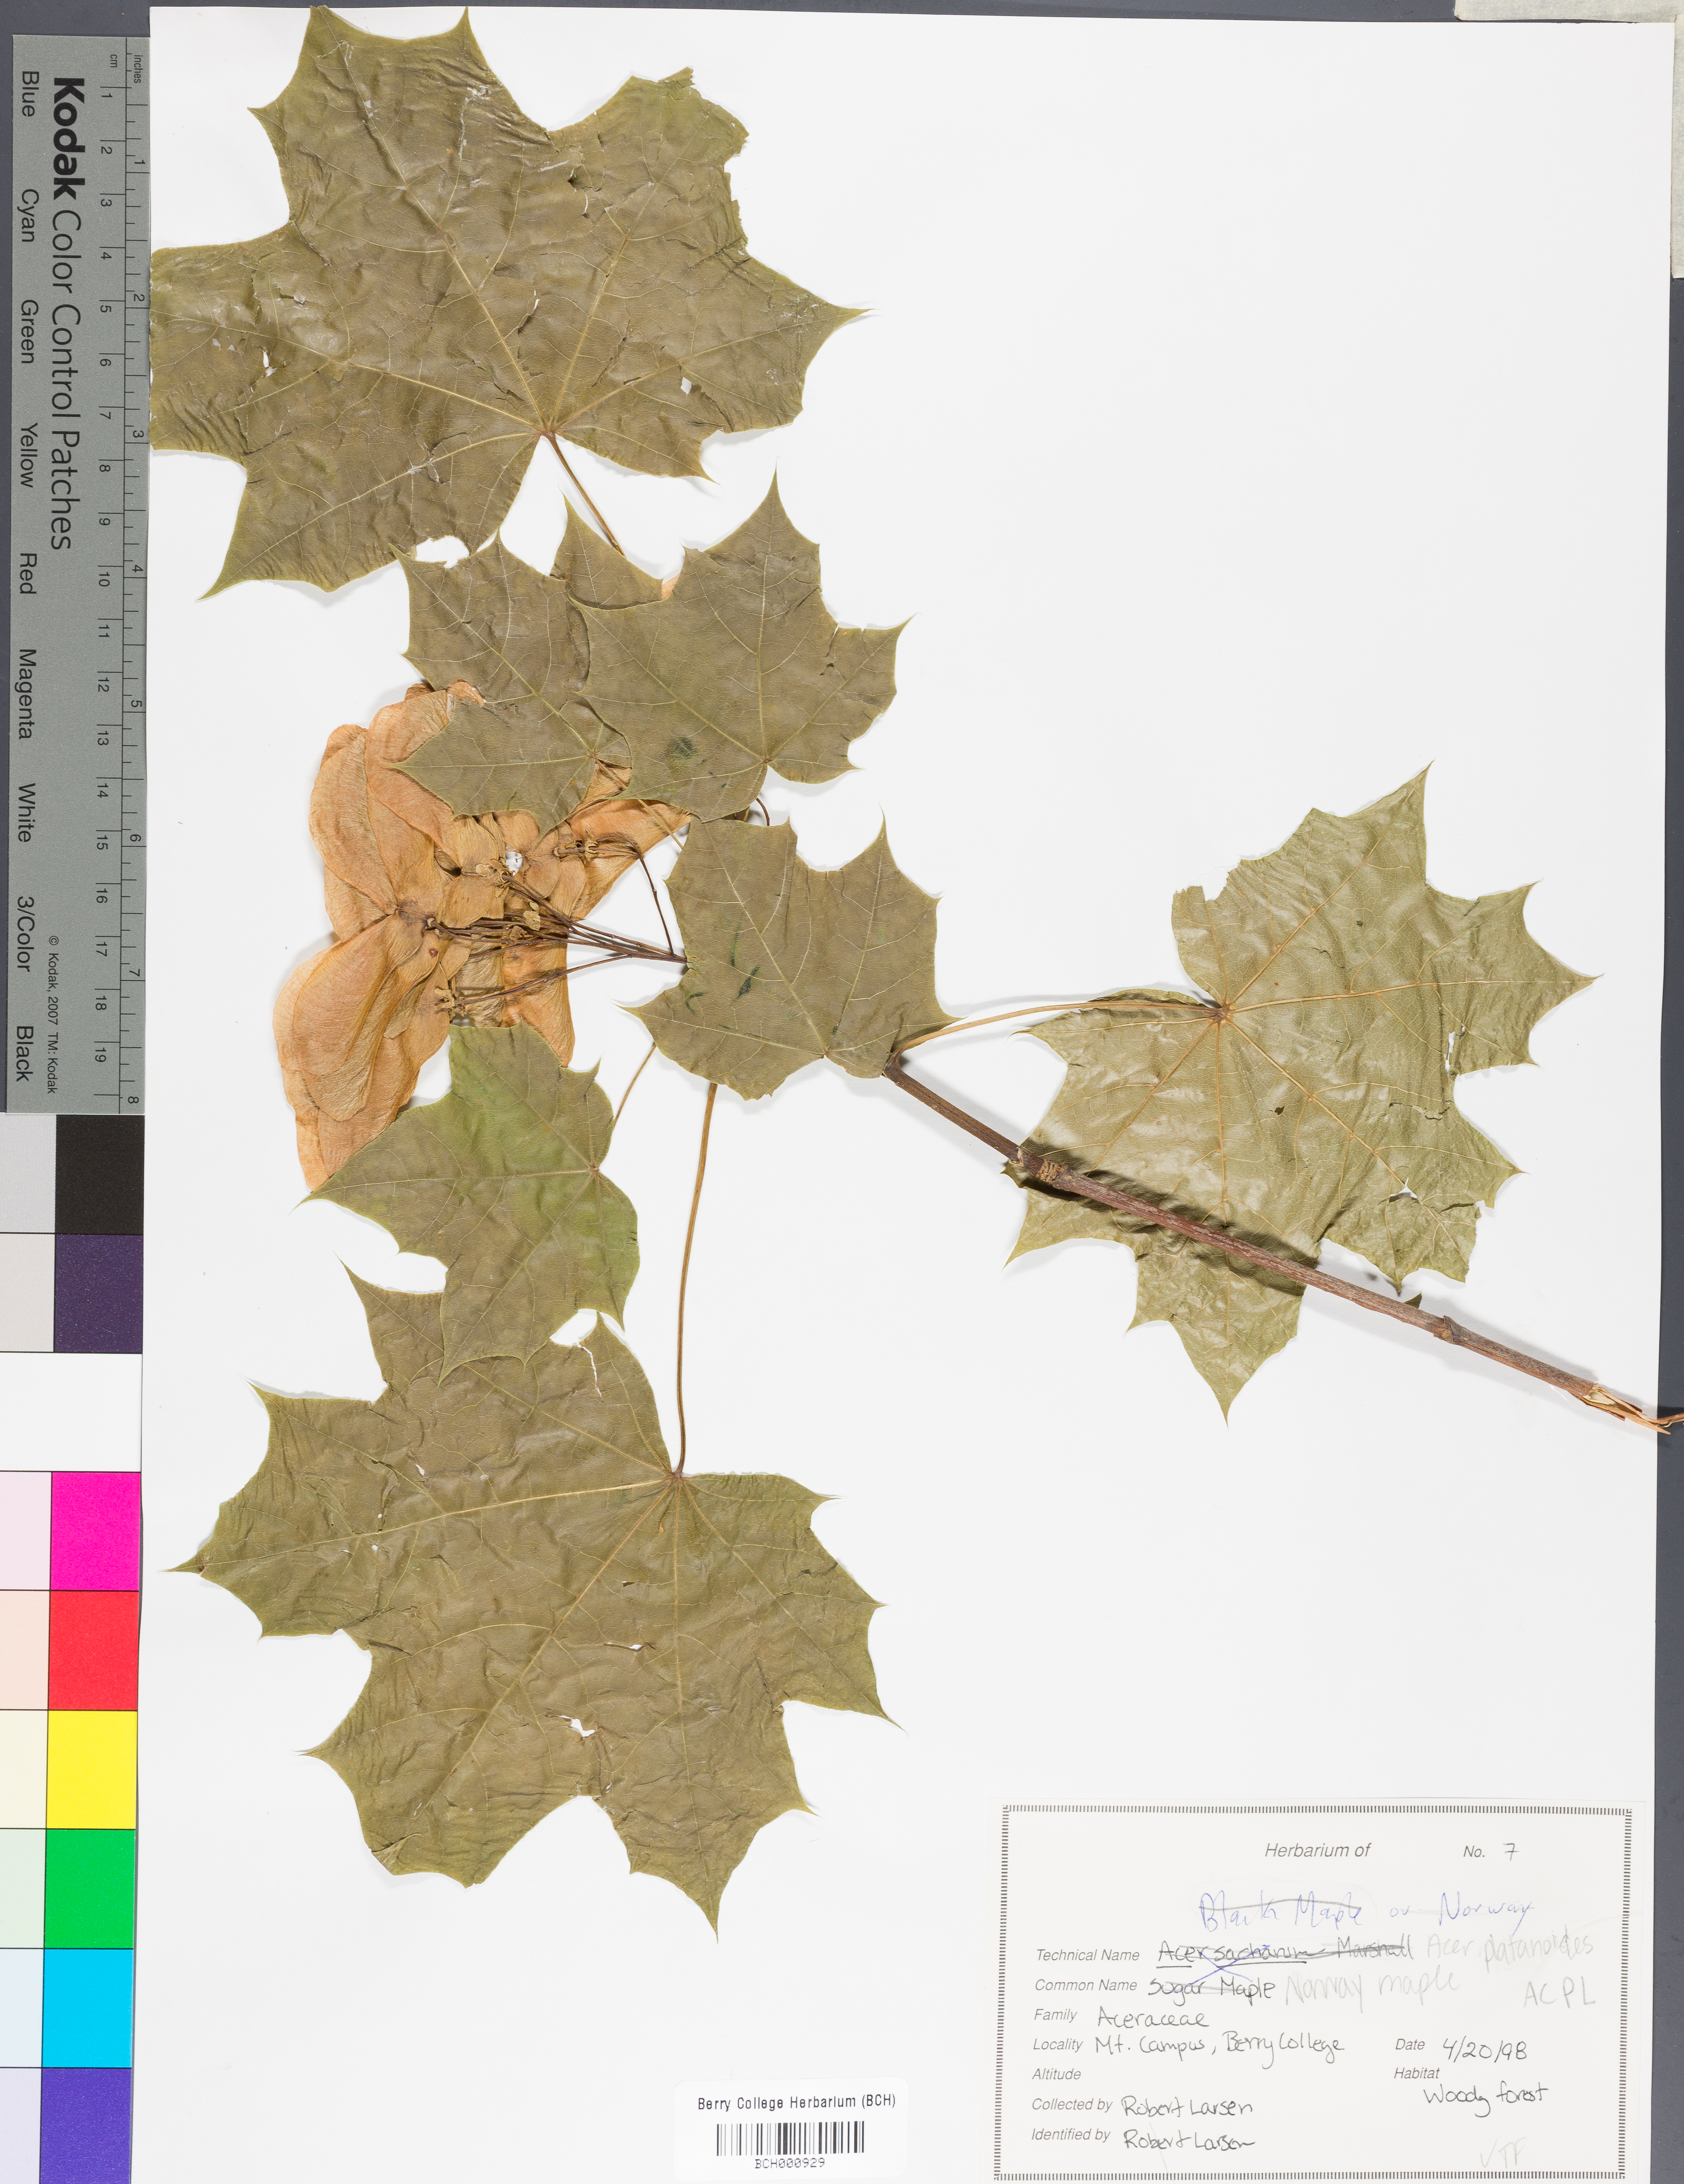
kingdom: Plantae
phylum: Tracheophyta
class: Magnoliopsida
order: Sapindales
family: Sapindaceae
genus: Acer
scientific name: Acer platanoides
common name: Norway maple
